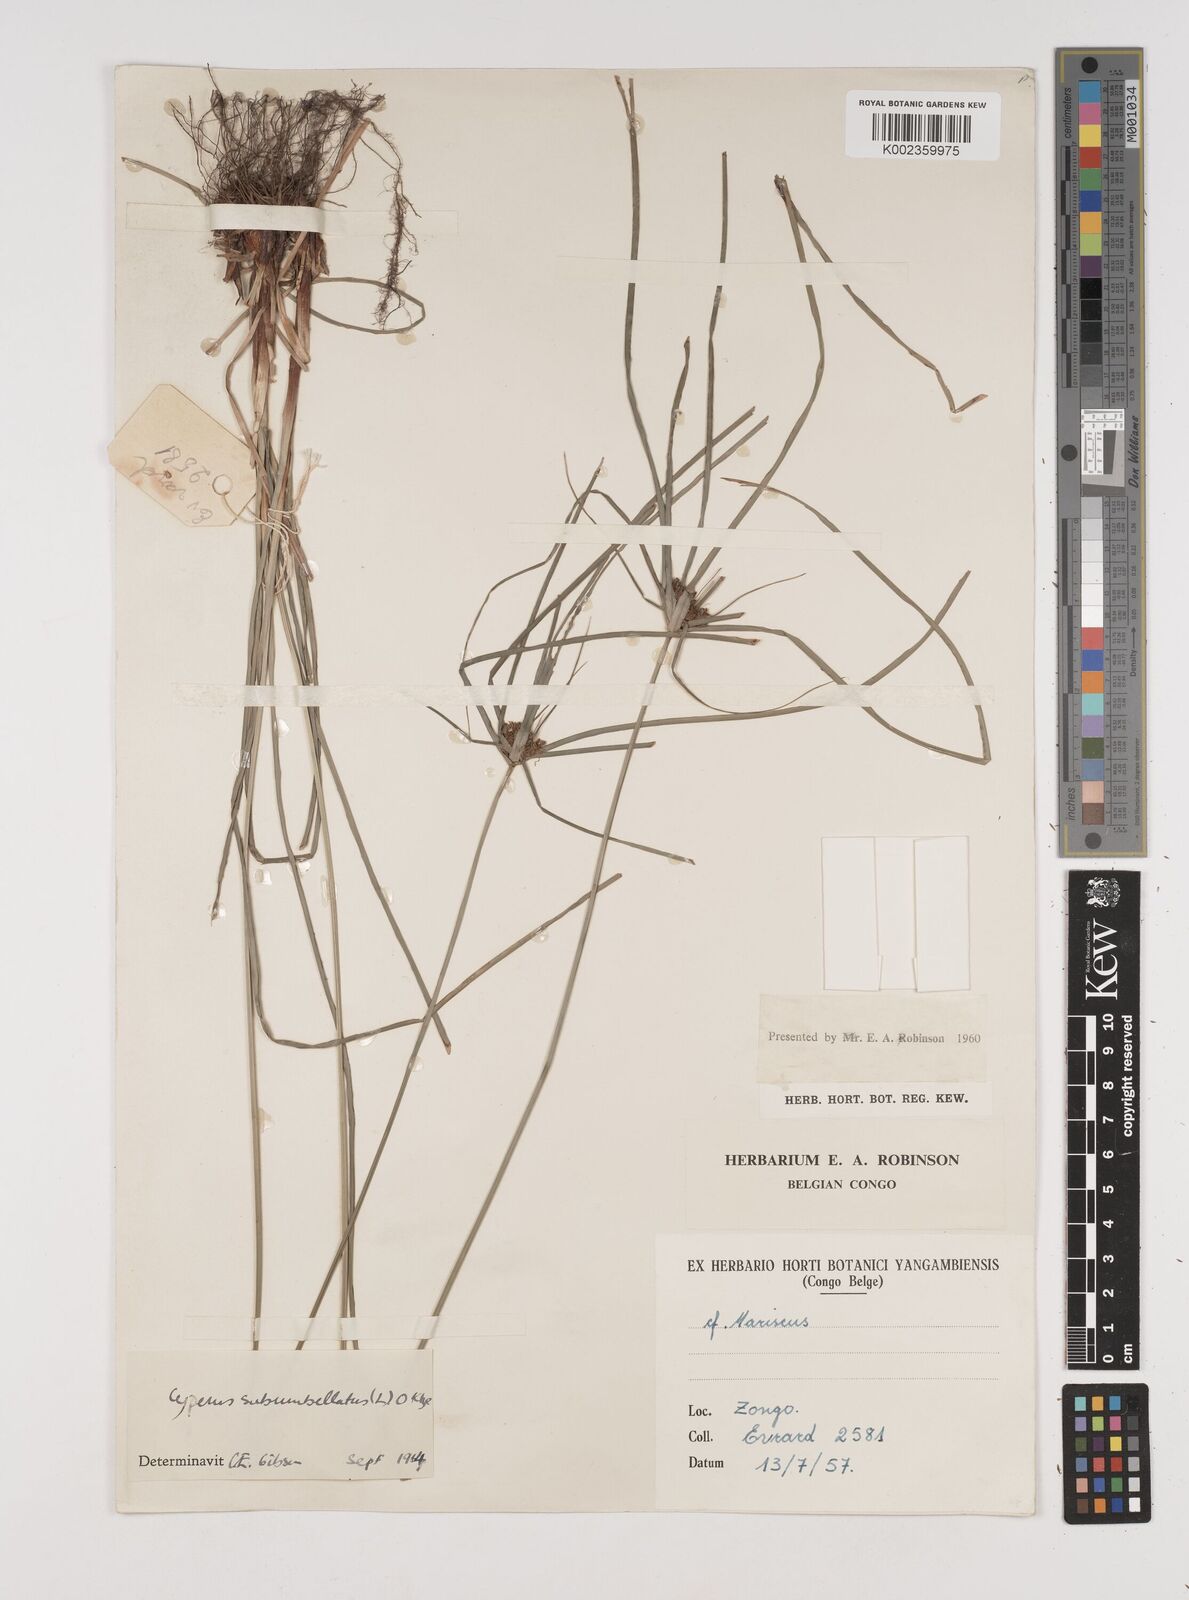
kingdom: Plantae
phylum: Tracheophyta
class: Liliopsida
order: Poales
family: Cyperaceae
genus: Cyperus
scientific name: Cyperus cyperoides
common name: Pacific island flat sedge
